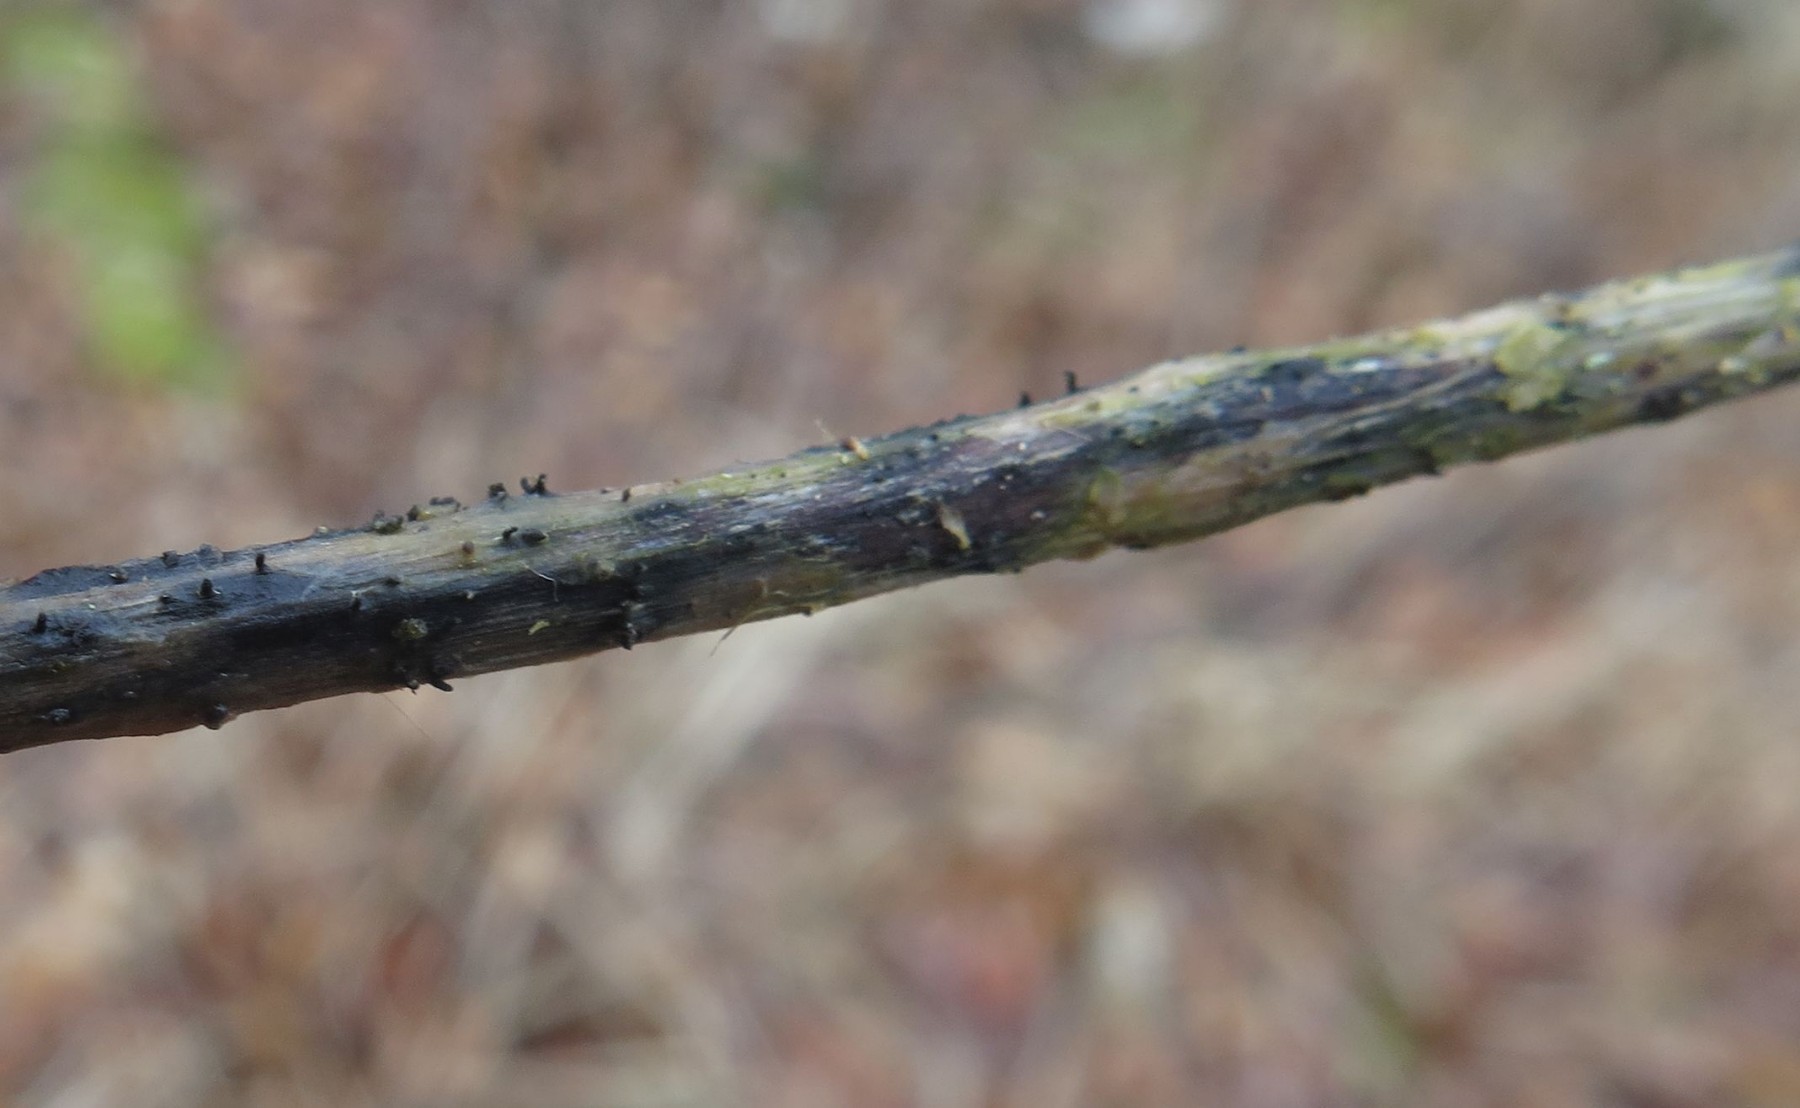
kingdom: Fungi
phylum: Ascomycota
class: Sordariomycetes
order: Diaporthales
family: Diaporthaceae
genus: Diaporthe
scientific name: Diaporthe dulcamarae
